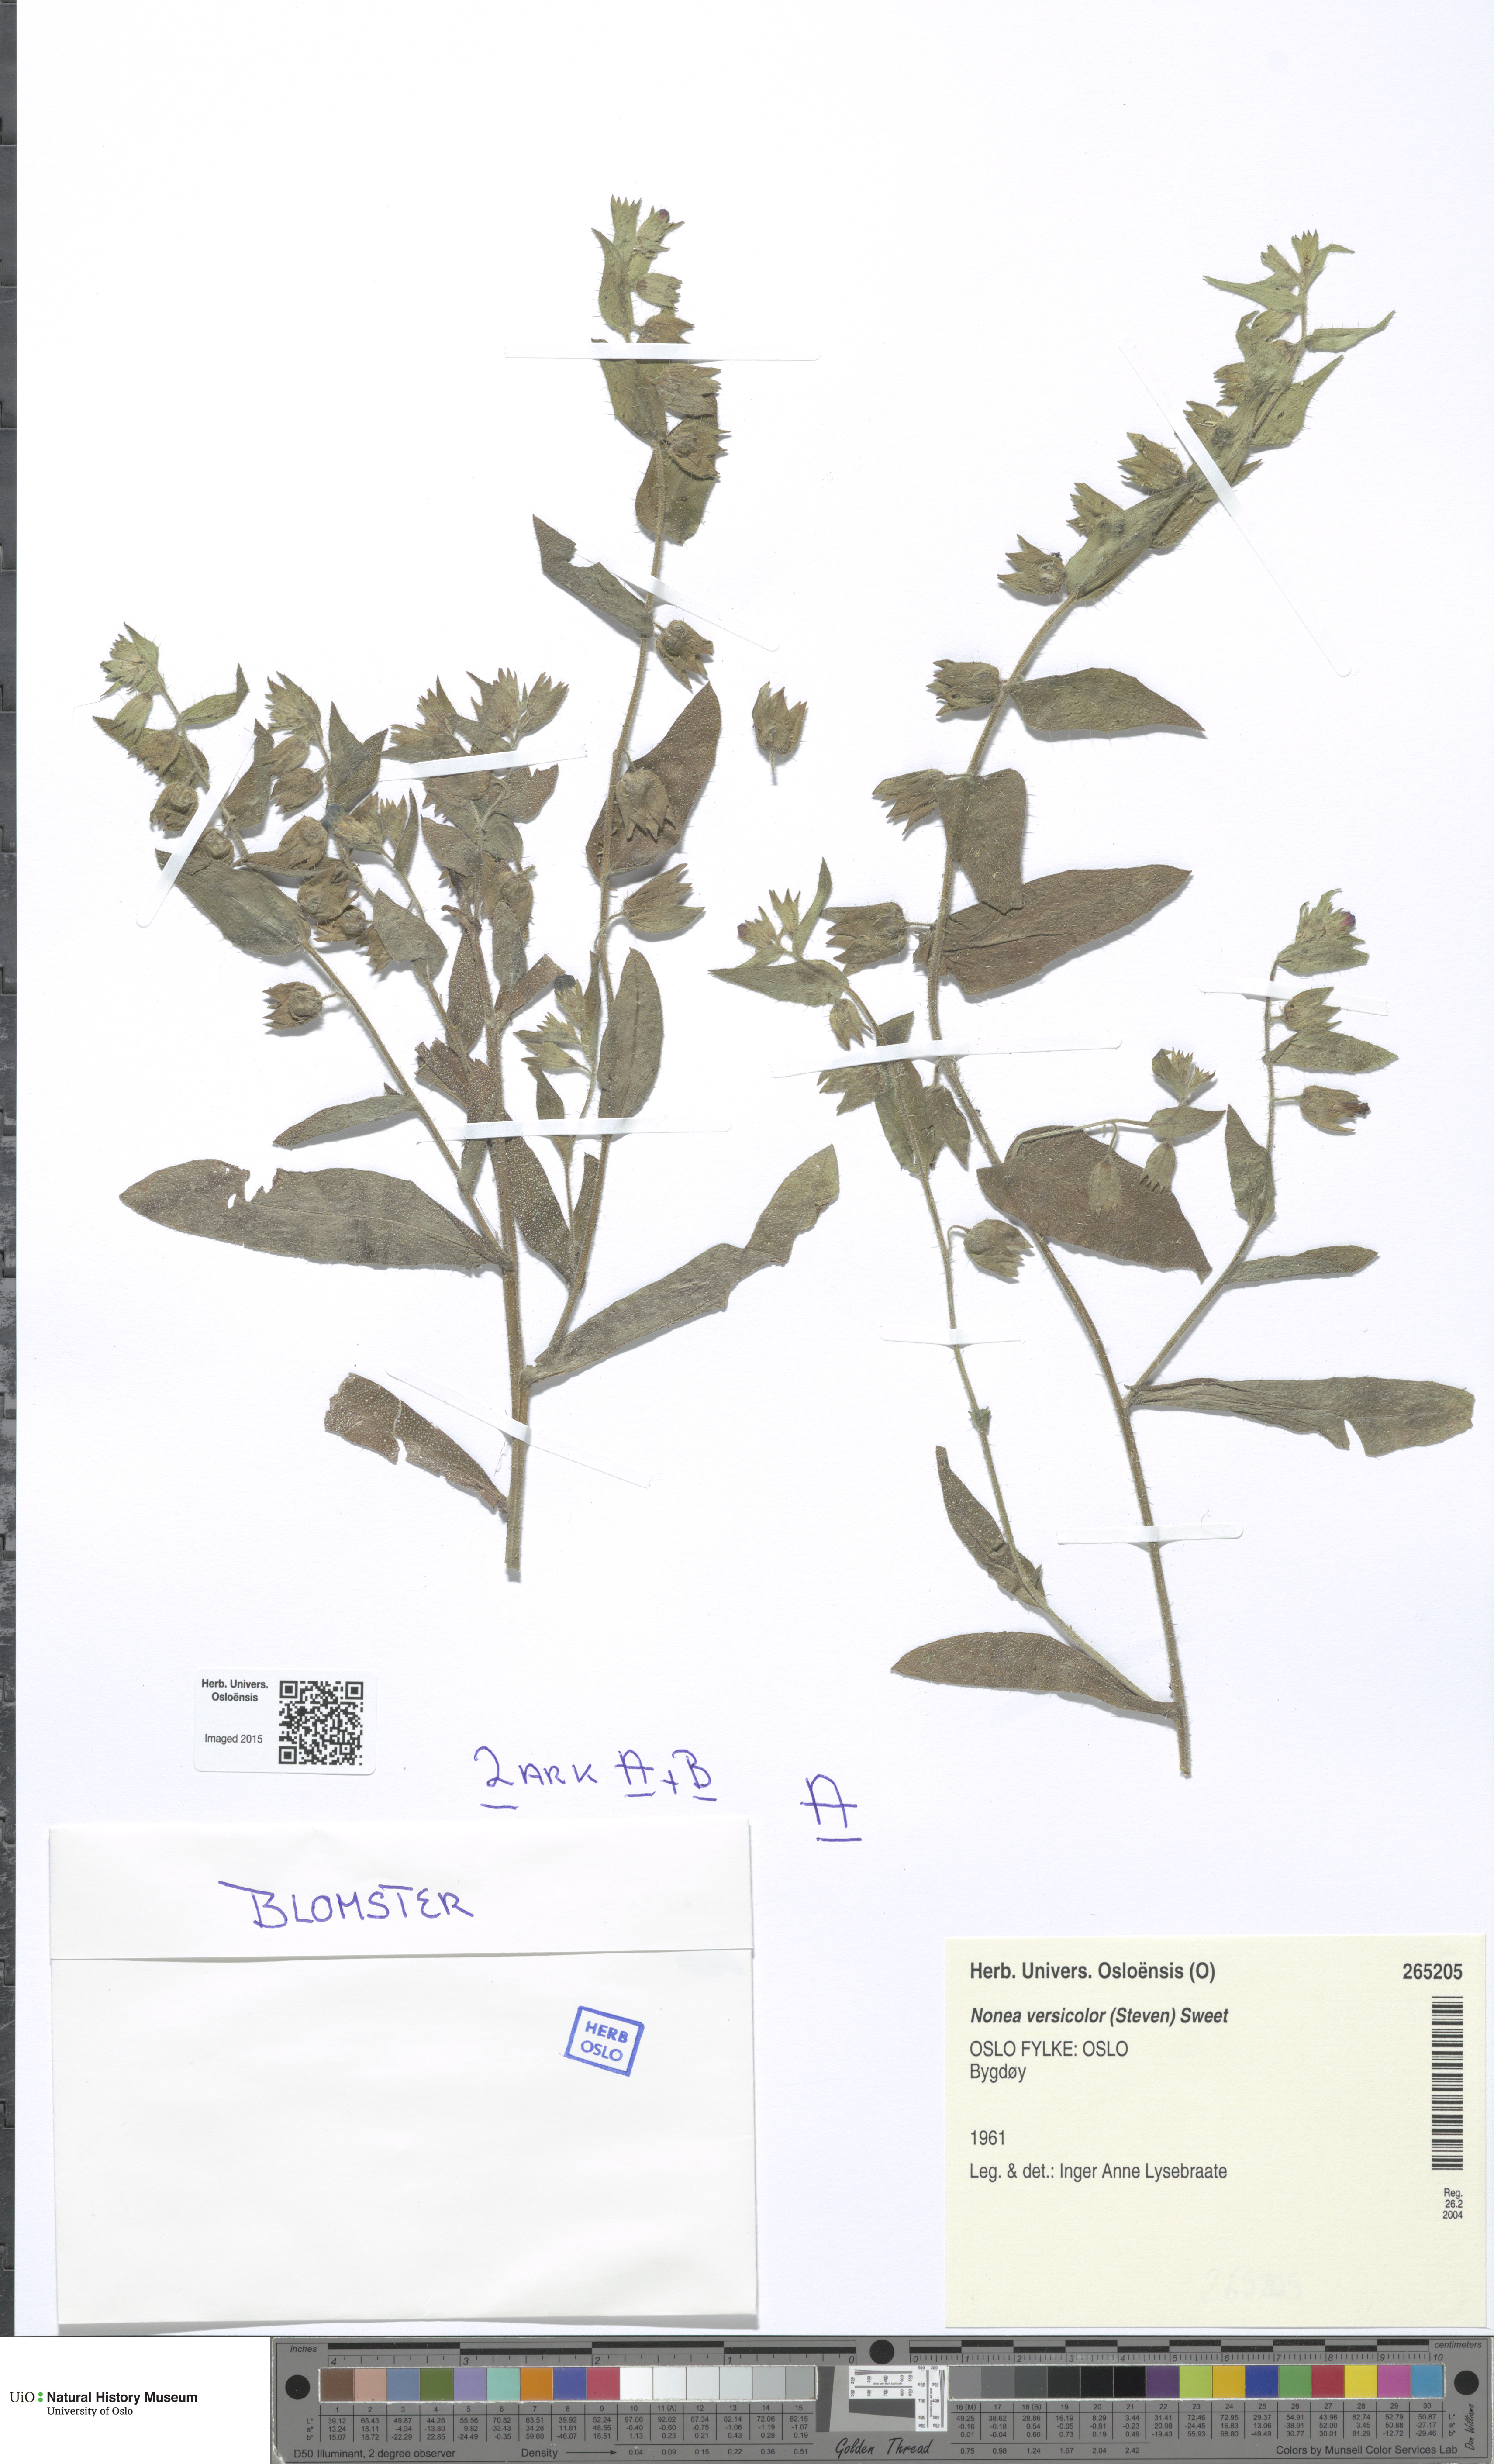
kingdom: Plantae
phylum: Tracheophyta
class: Magnoliopsida
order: Boraginales
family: Boraginaceae
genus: Nonea
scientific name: Nonea versicolor
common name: Varied monkswort
